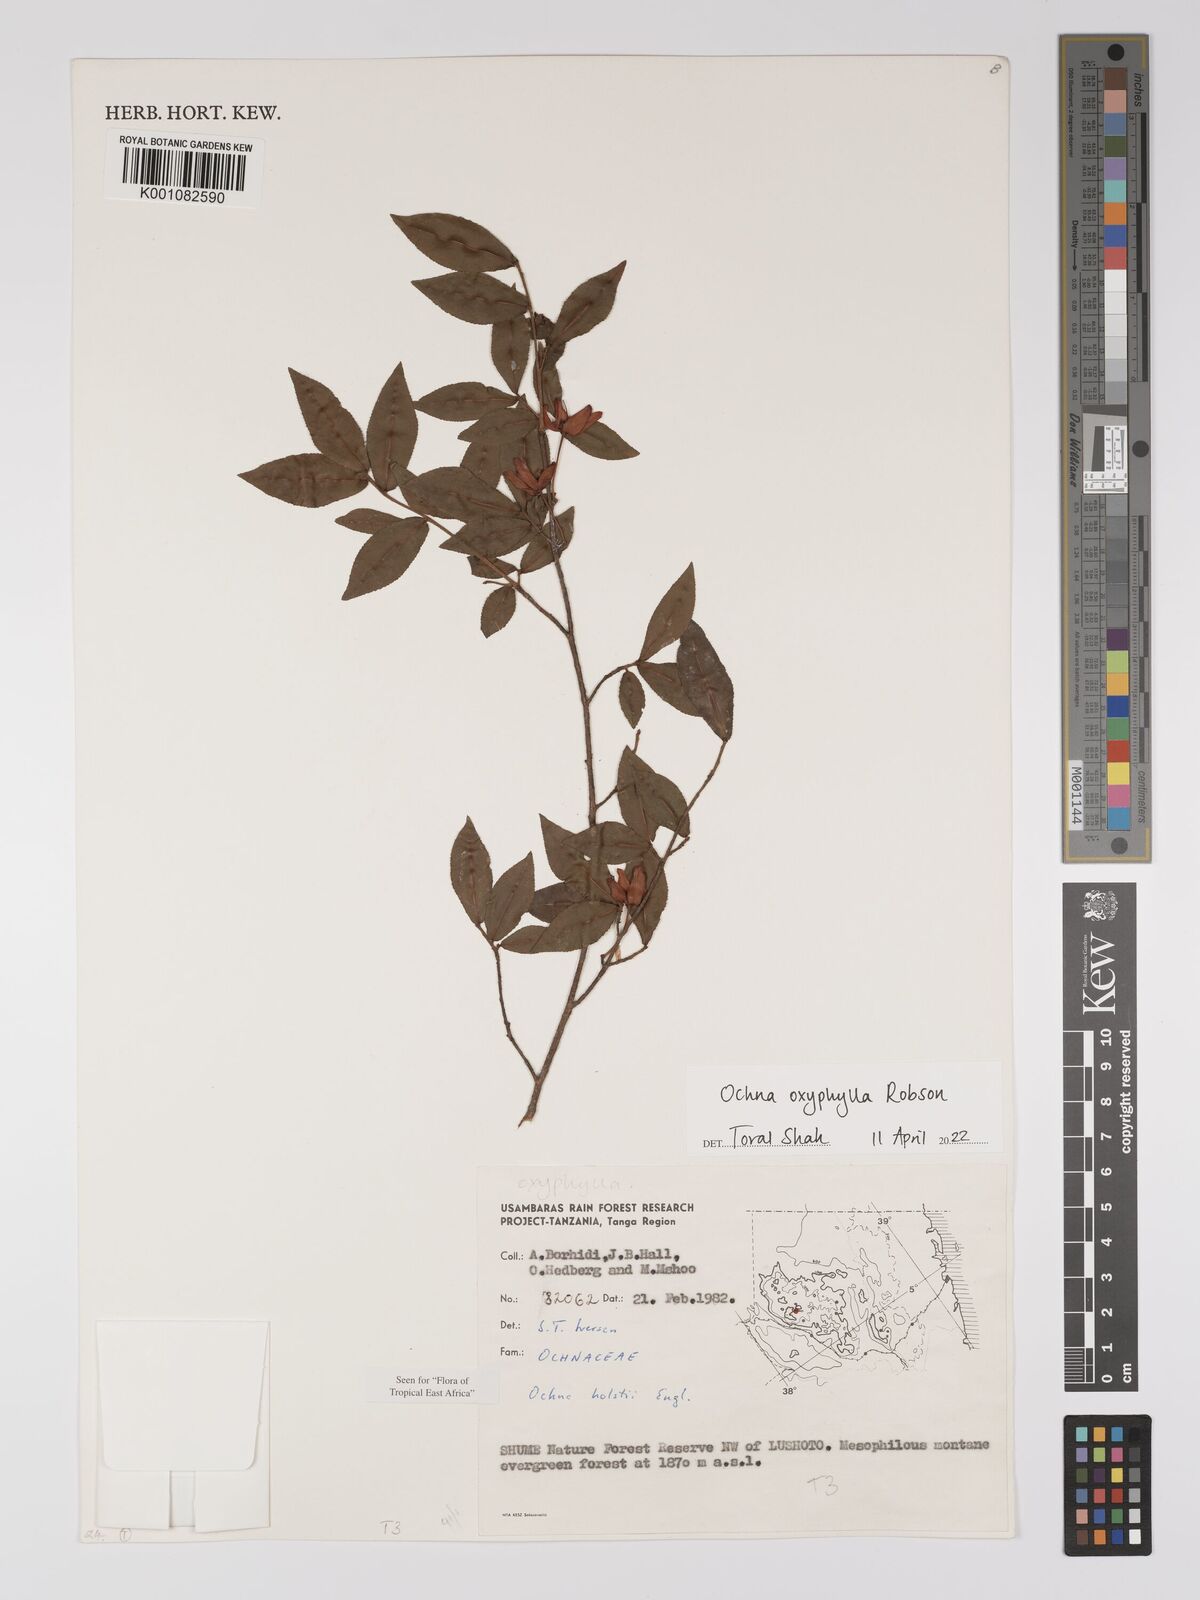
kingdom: Plantae
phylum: Tracheophyta
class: Magnoliopsida
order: Malpighiales
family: Ochnaceae
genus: Ochna
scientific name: Ochna oxyphylla
